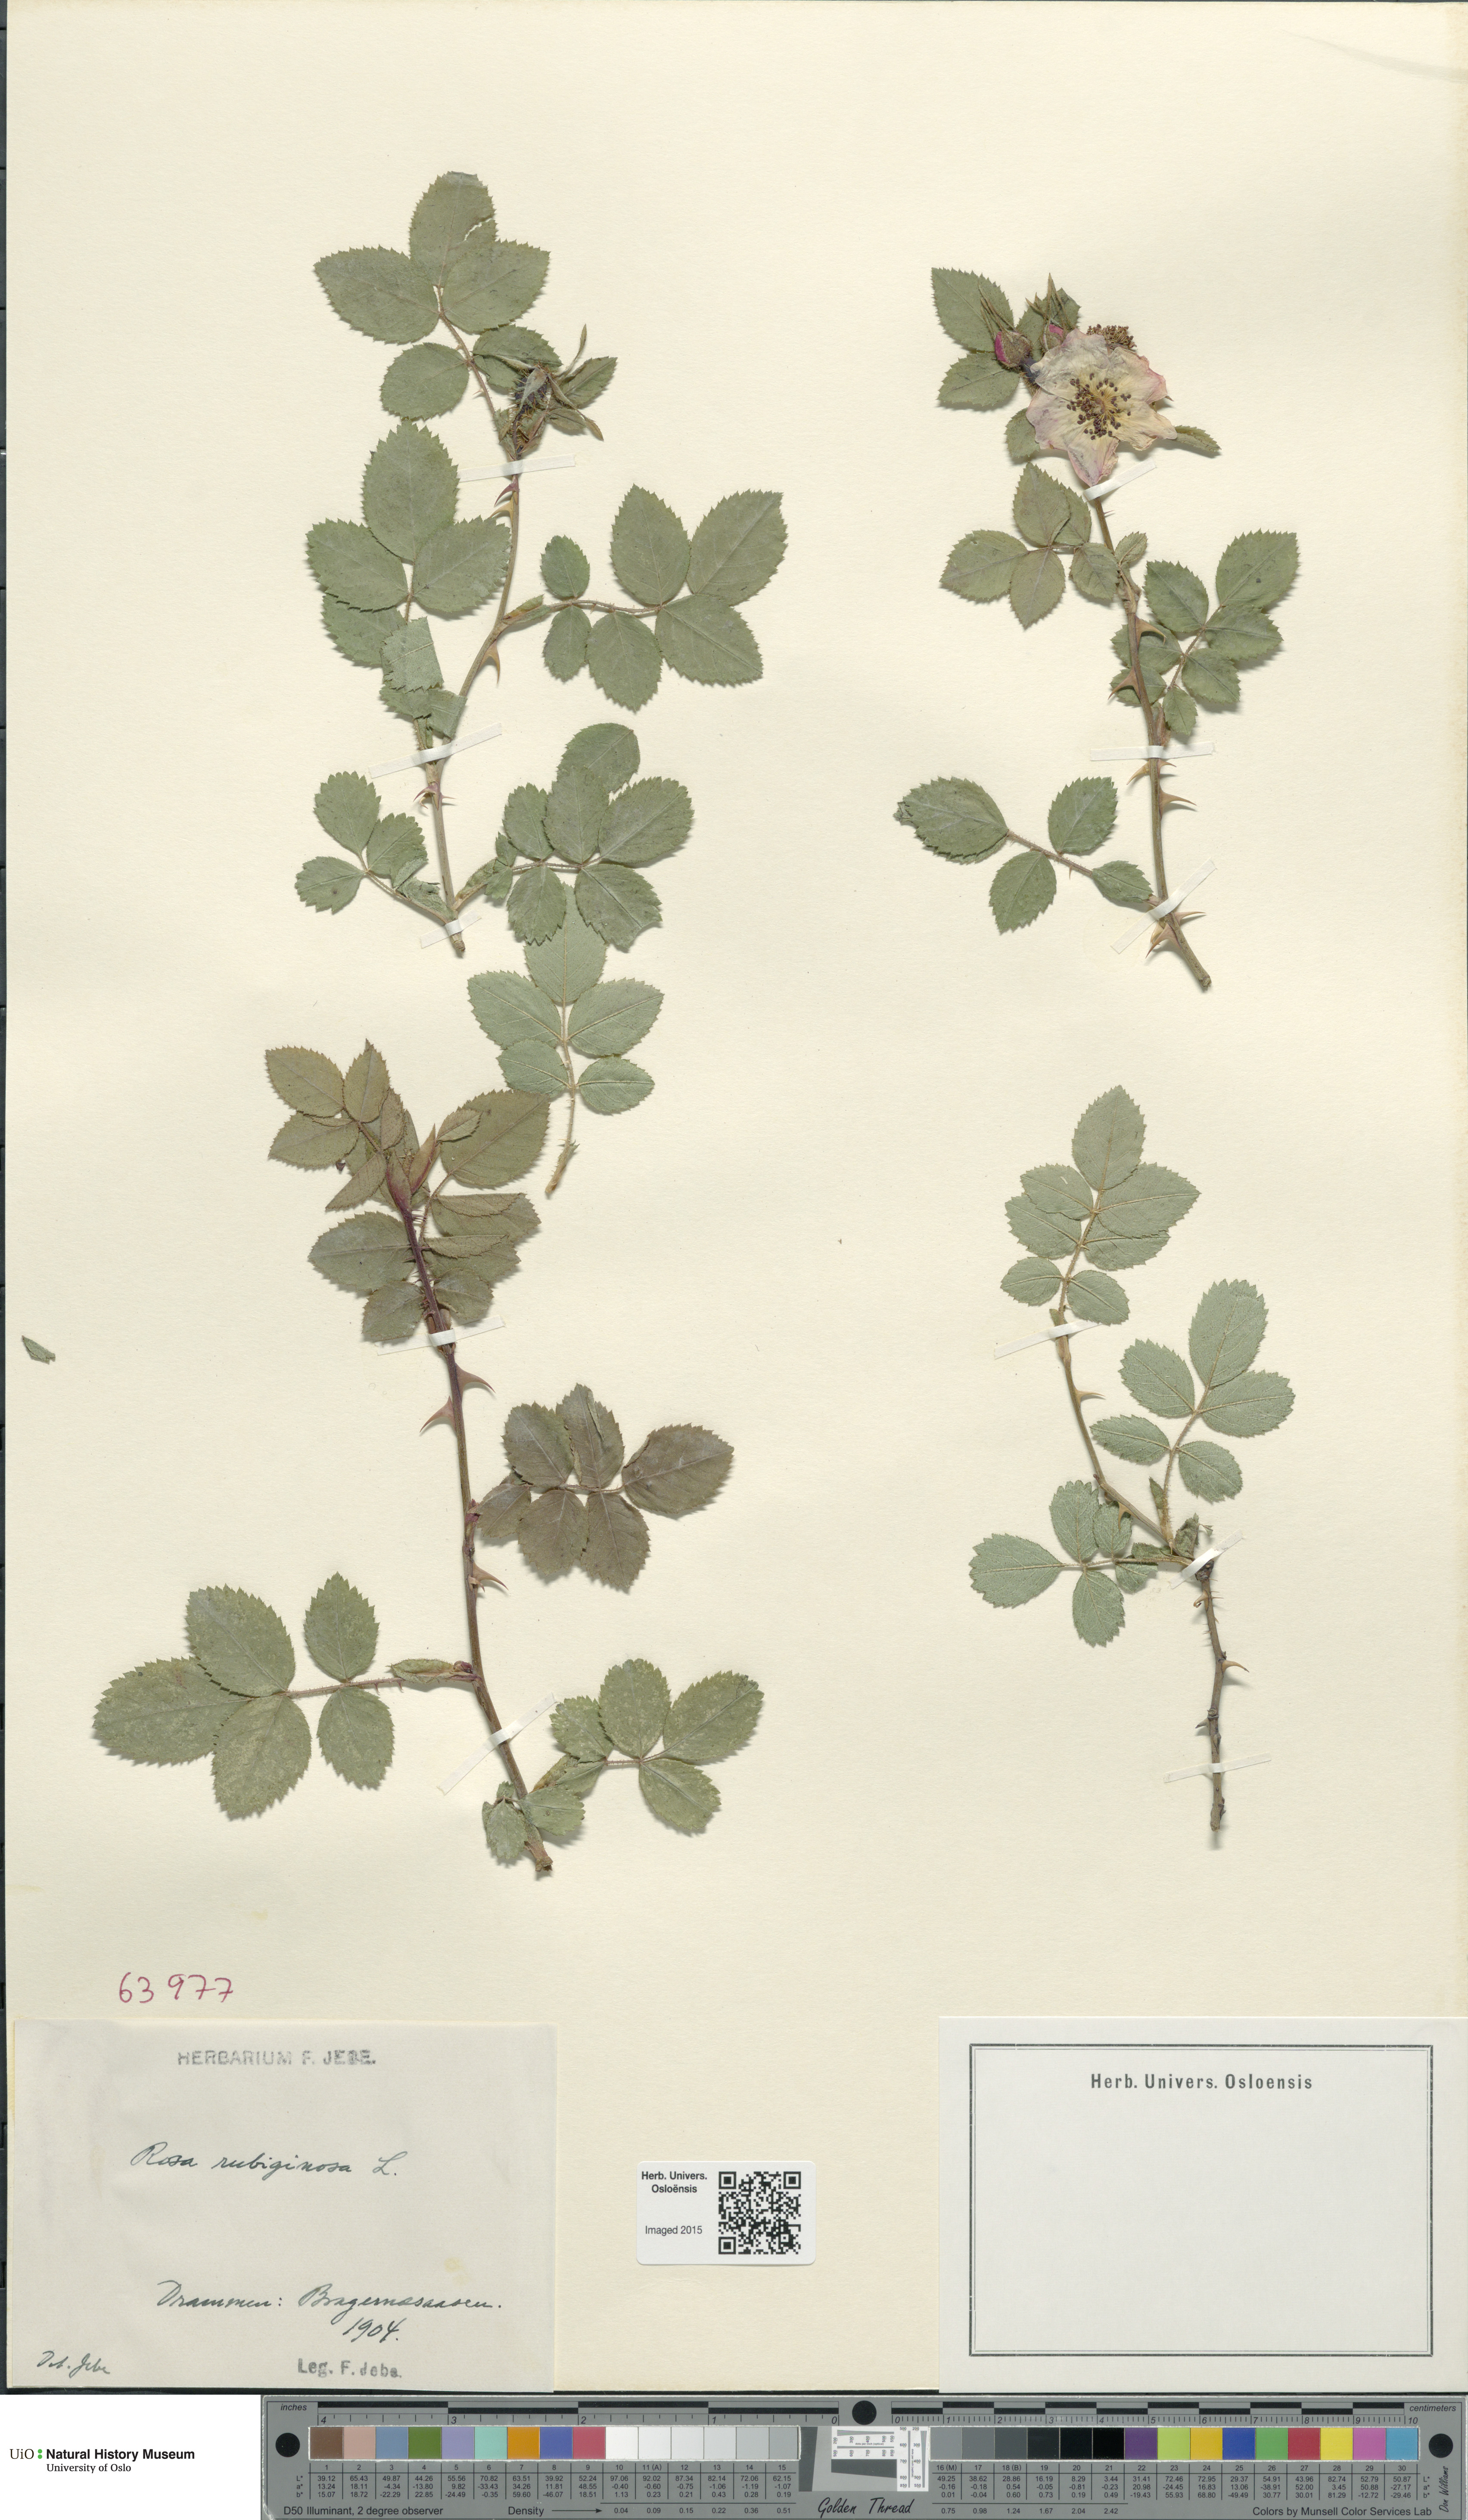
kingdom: Plantae
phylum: Tracheophyta
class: Magnoliopsida
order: Rosales
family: Rosaceae
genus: Rosa
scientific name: Rosa rubiginosa
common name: Sweet-briar
